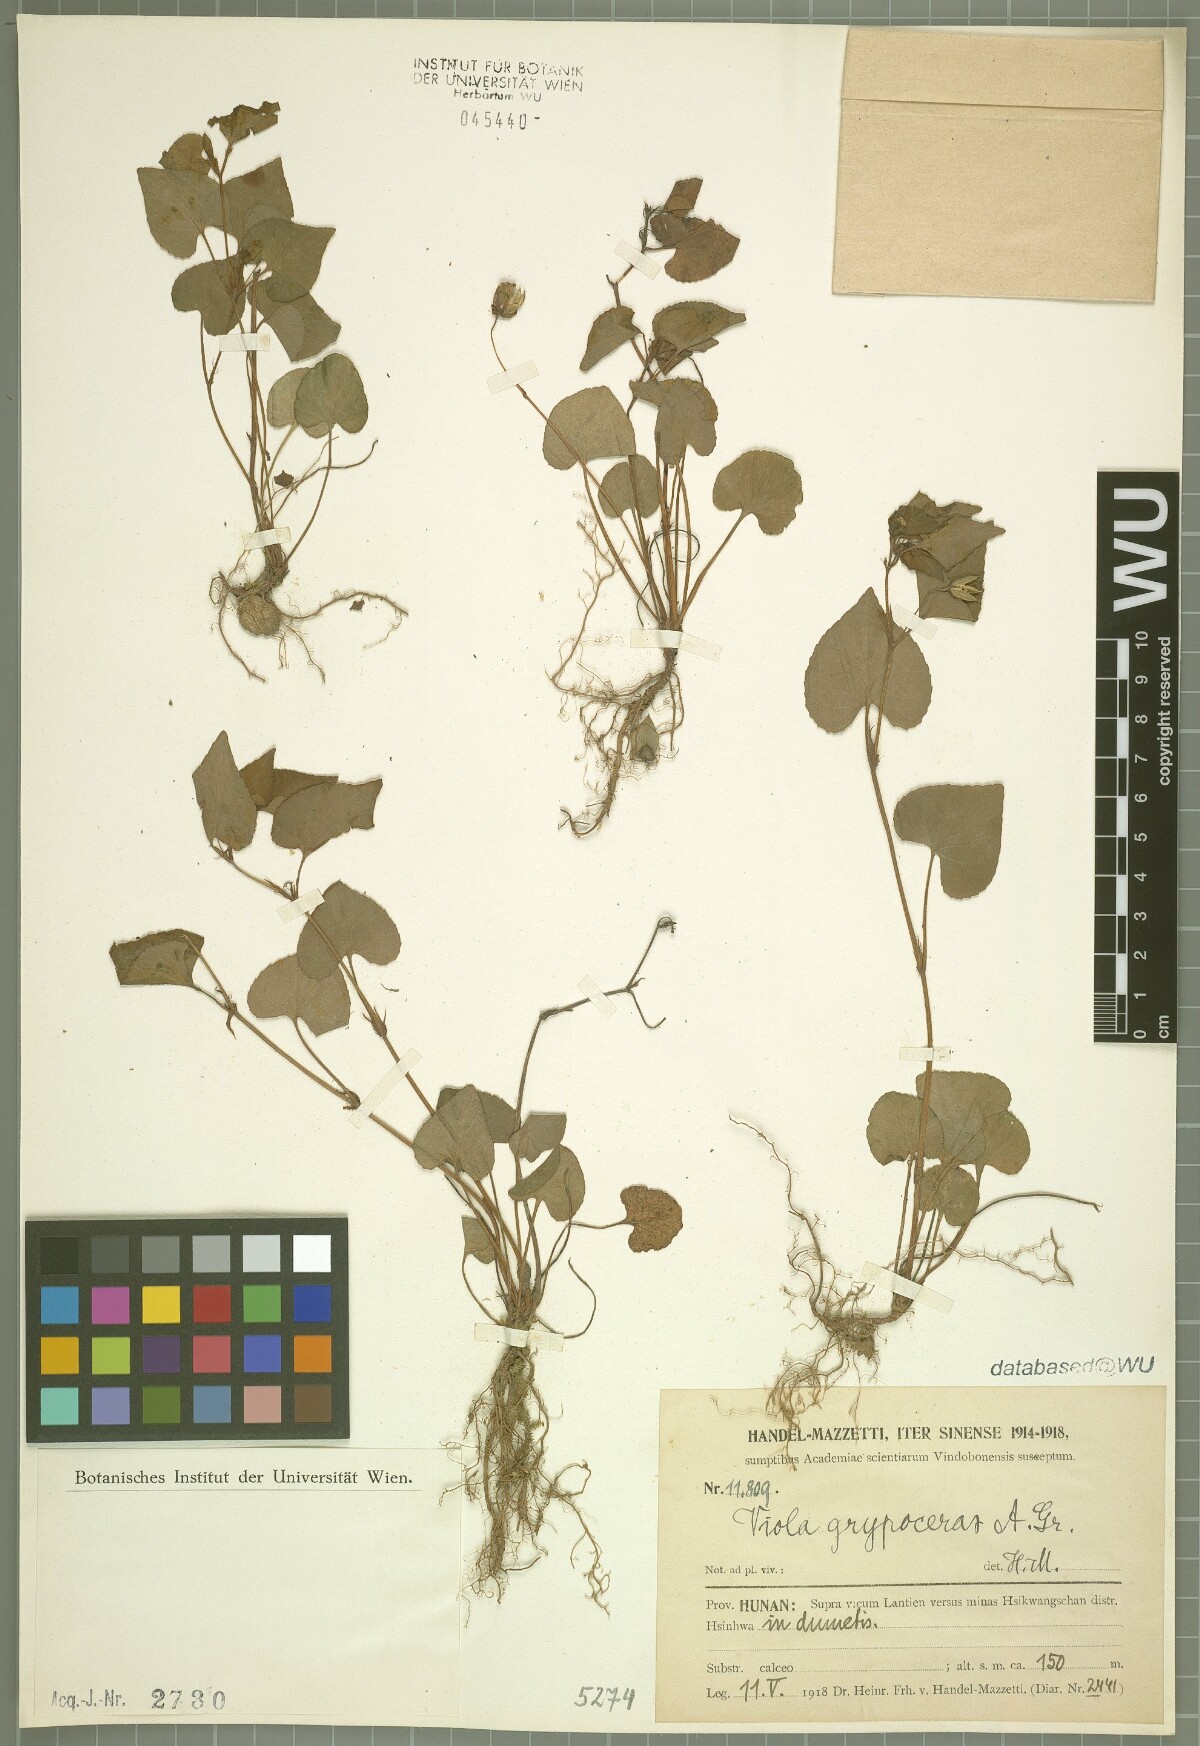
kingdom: Plantae
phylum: Tracheophyta
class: Magnoliopsida
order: Malpighiales
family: Violaceae
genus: Viola
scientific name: Viola grypoceras
